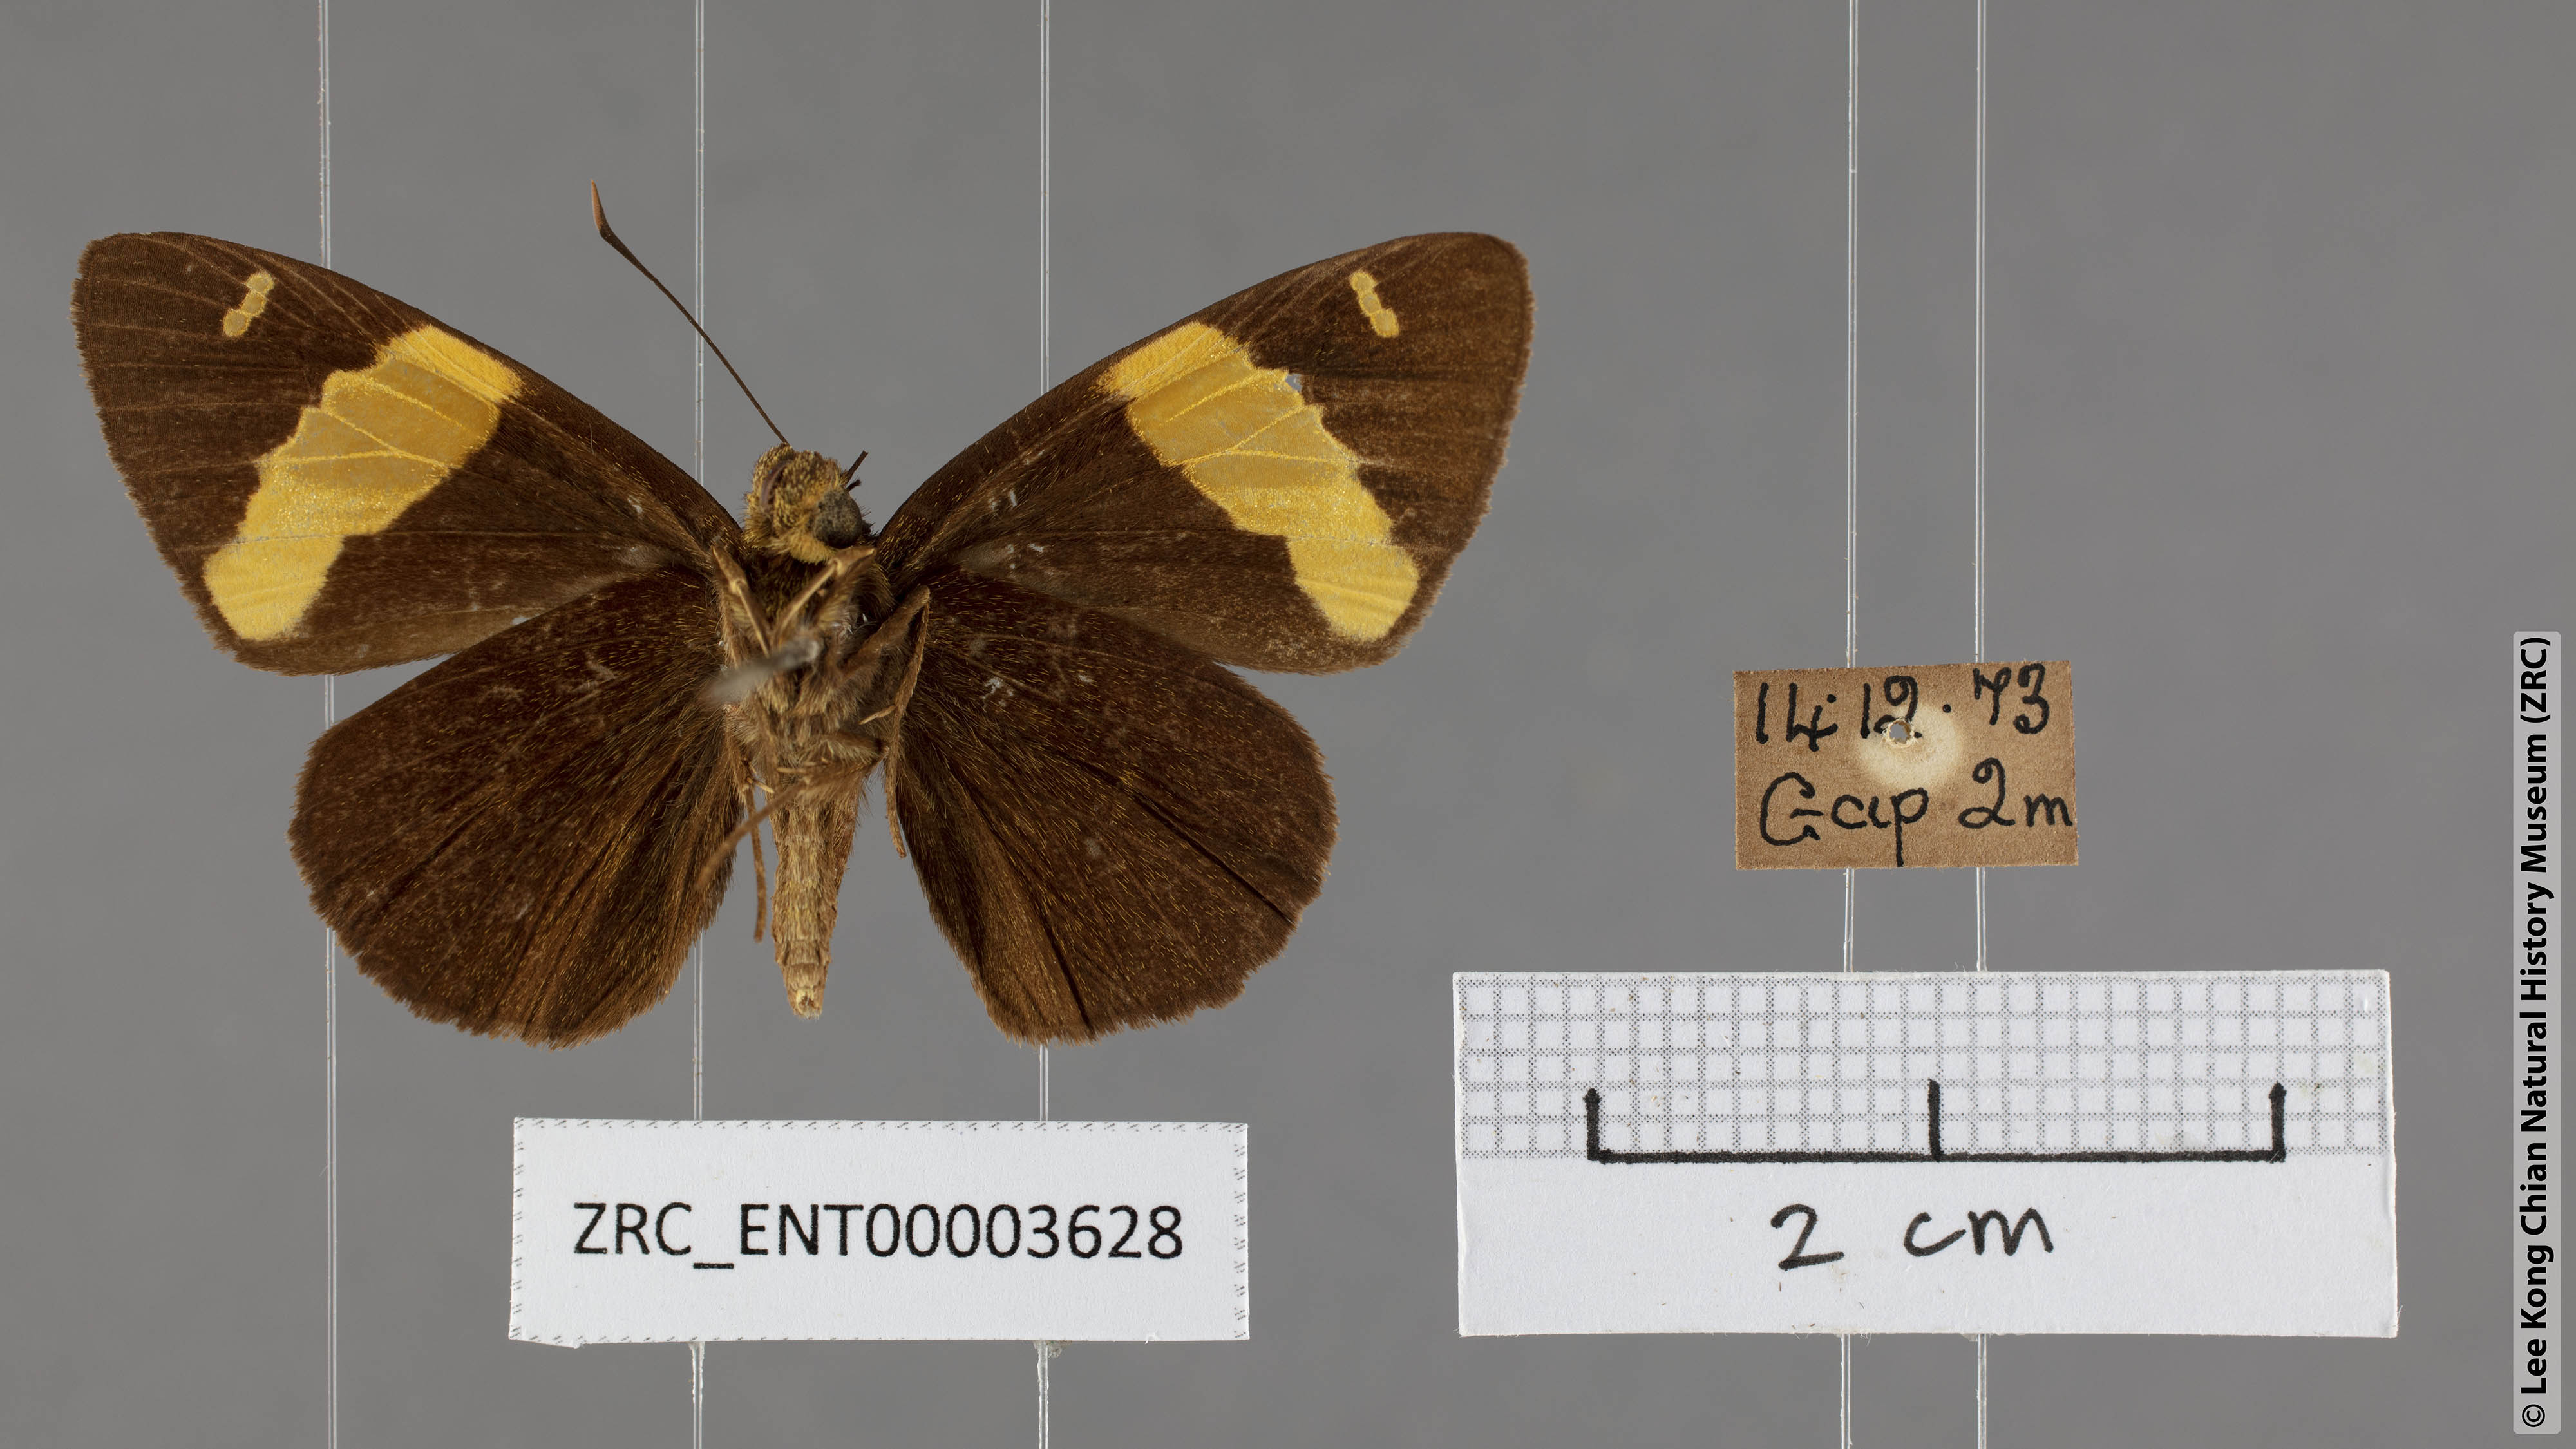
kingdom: Animalia
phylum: Arthropoda
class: Insecta
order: Lepidoptera
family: Hesperiidae
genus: Celaenorrhinus
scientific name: Celaenorrhinus aurivittata
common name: Dark yellow-banded flat
